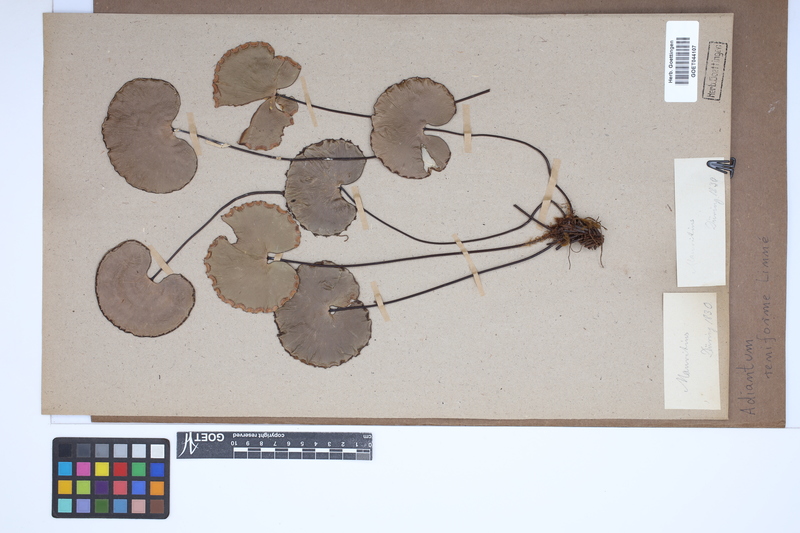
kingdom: Plantae
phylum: Tracheophyta
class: Polypodiopsida
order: Polypodiales
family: Pteridaceae
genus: Adiantum
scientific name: Adiantum reniforme
